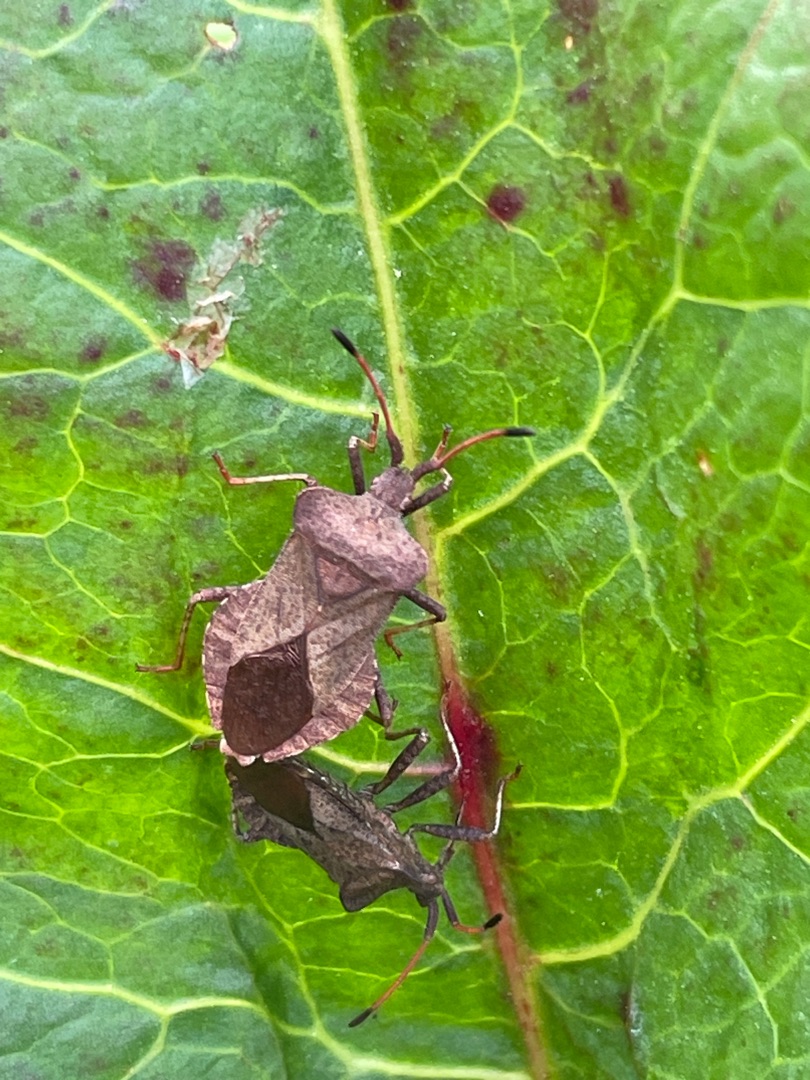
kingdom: Animalia
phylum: Arthropoda
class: Insecta
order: Hemiptera
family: Coreidae
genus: Coreus
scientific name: Coreus marginatus
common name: Skræppetæge
